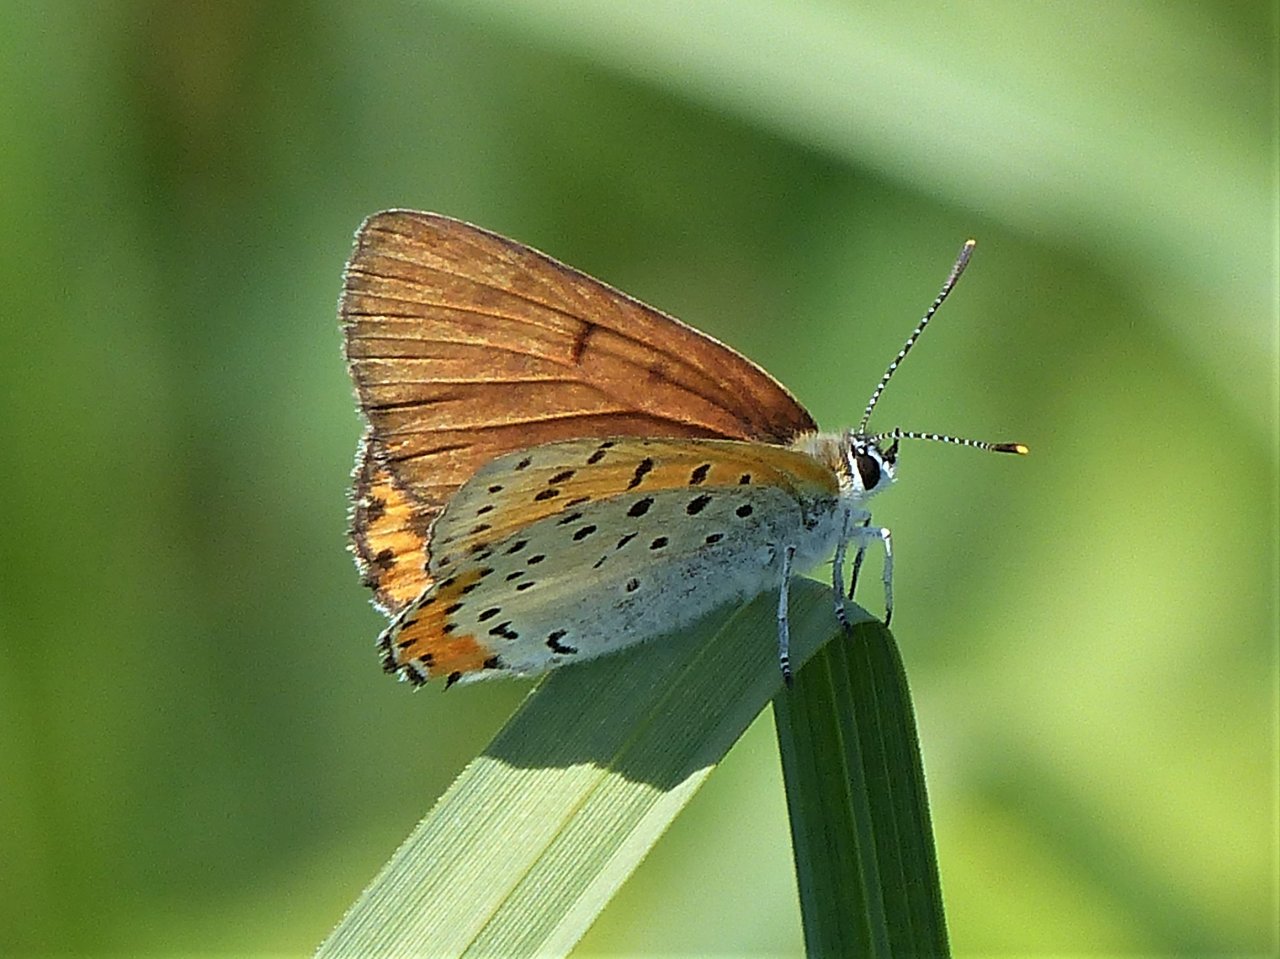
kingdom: Animalia
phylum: Arthropoda
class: Insecta
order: Lepidoptera
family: Sesiidae
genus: Sesia
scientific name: Sesia Lycaena hyllus
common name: Bronze Copper
